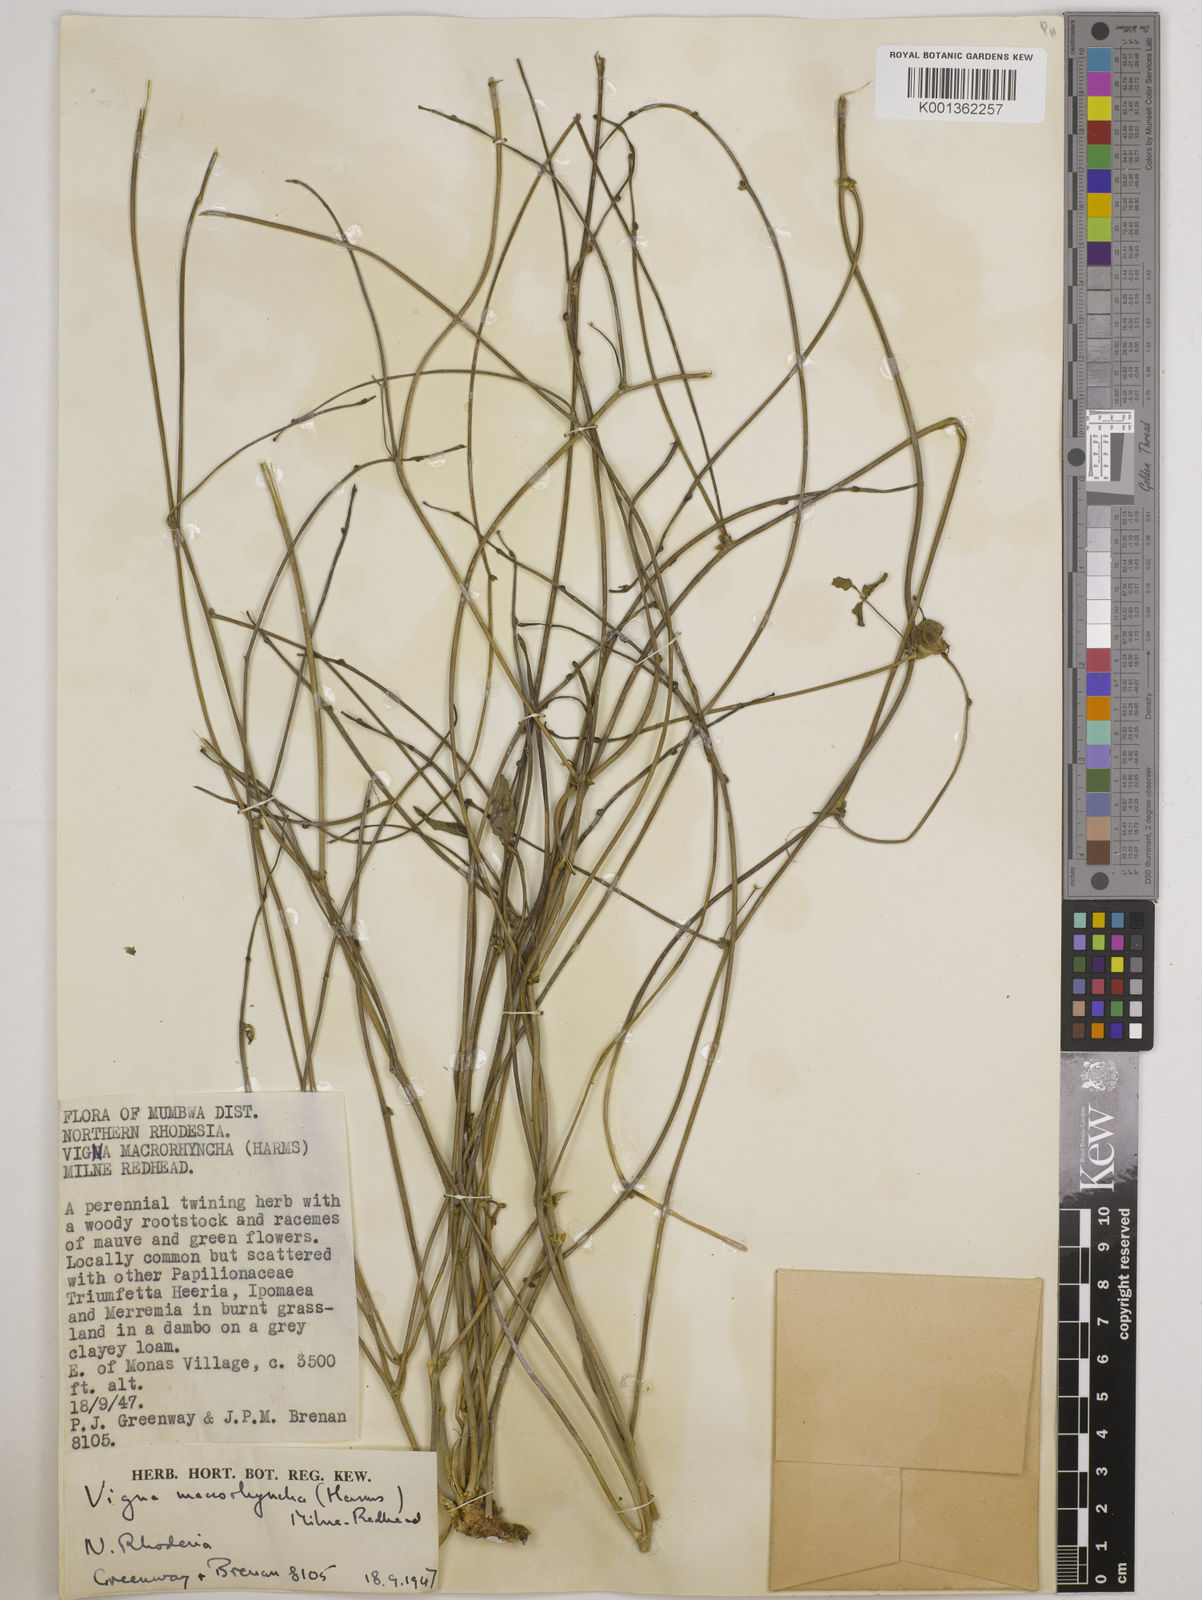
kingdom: Plantae
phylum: Tracheophyta
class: Magnoliopsida
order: Fabales
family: Fabaceae
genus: Wajira
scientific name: Wajira grahamiana
